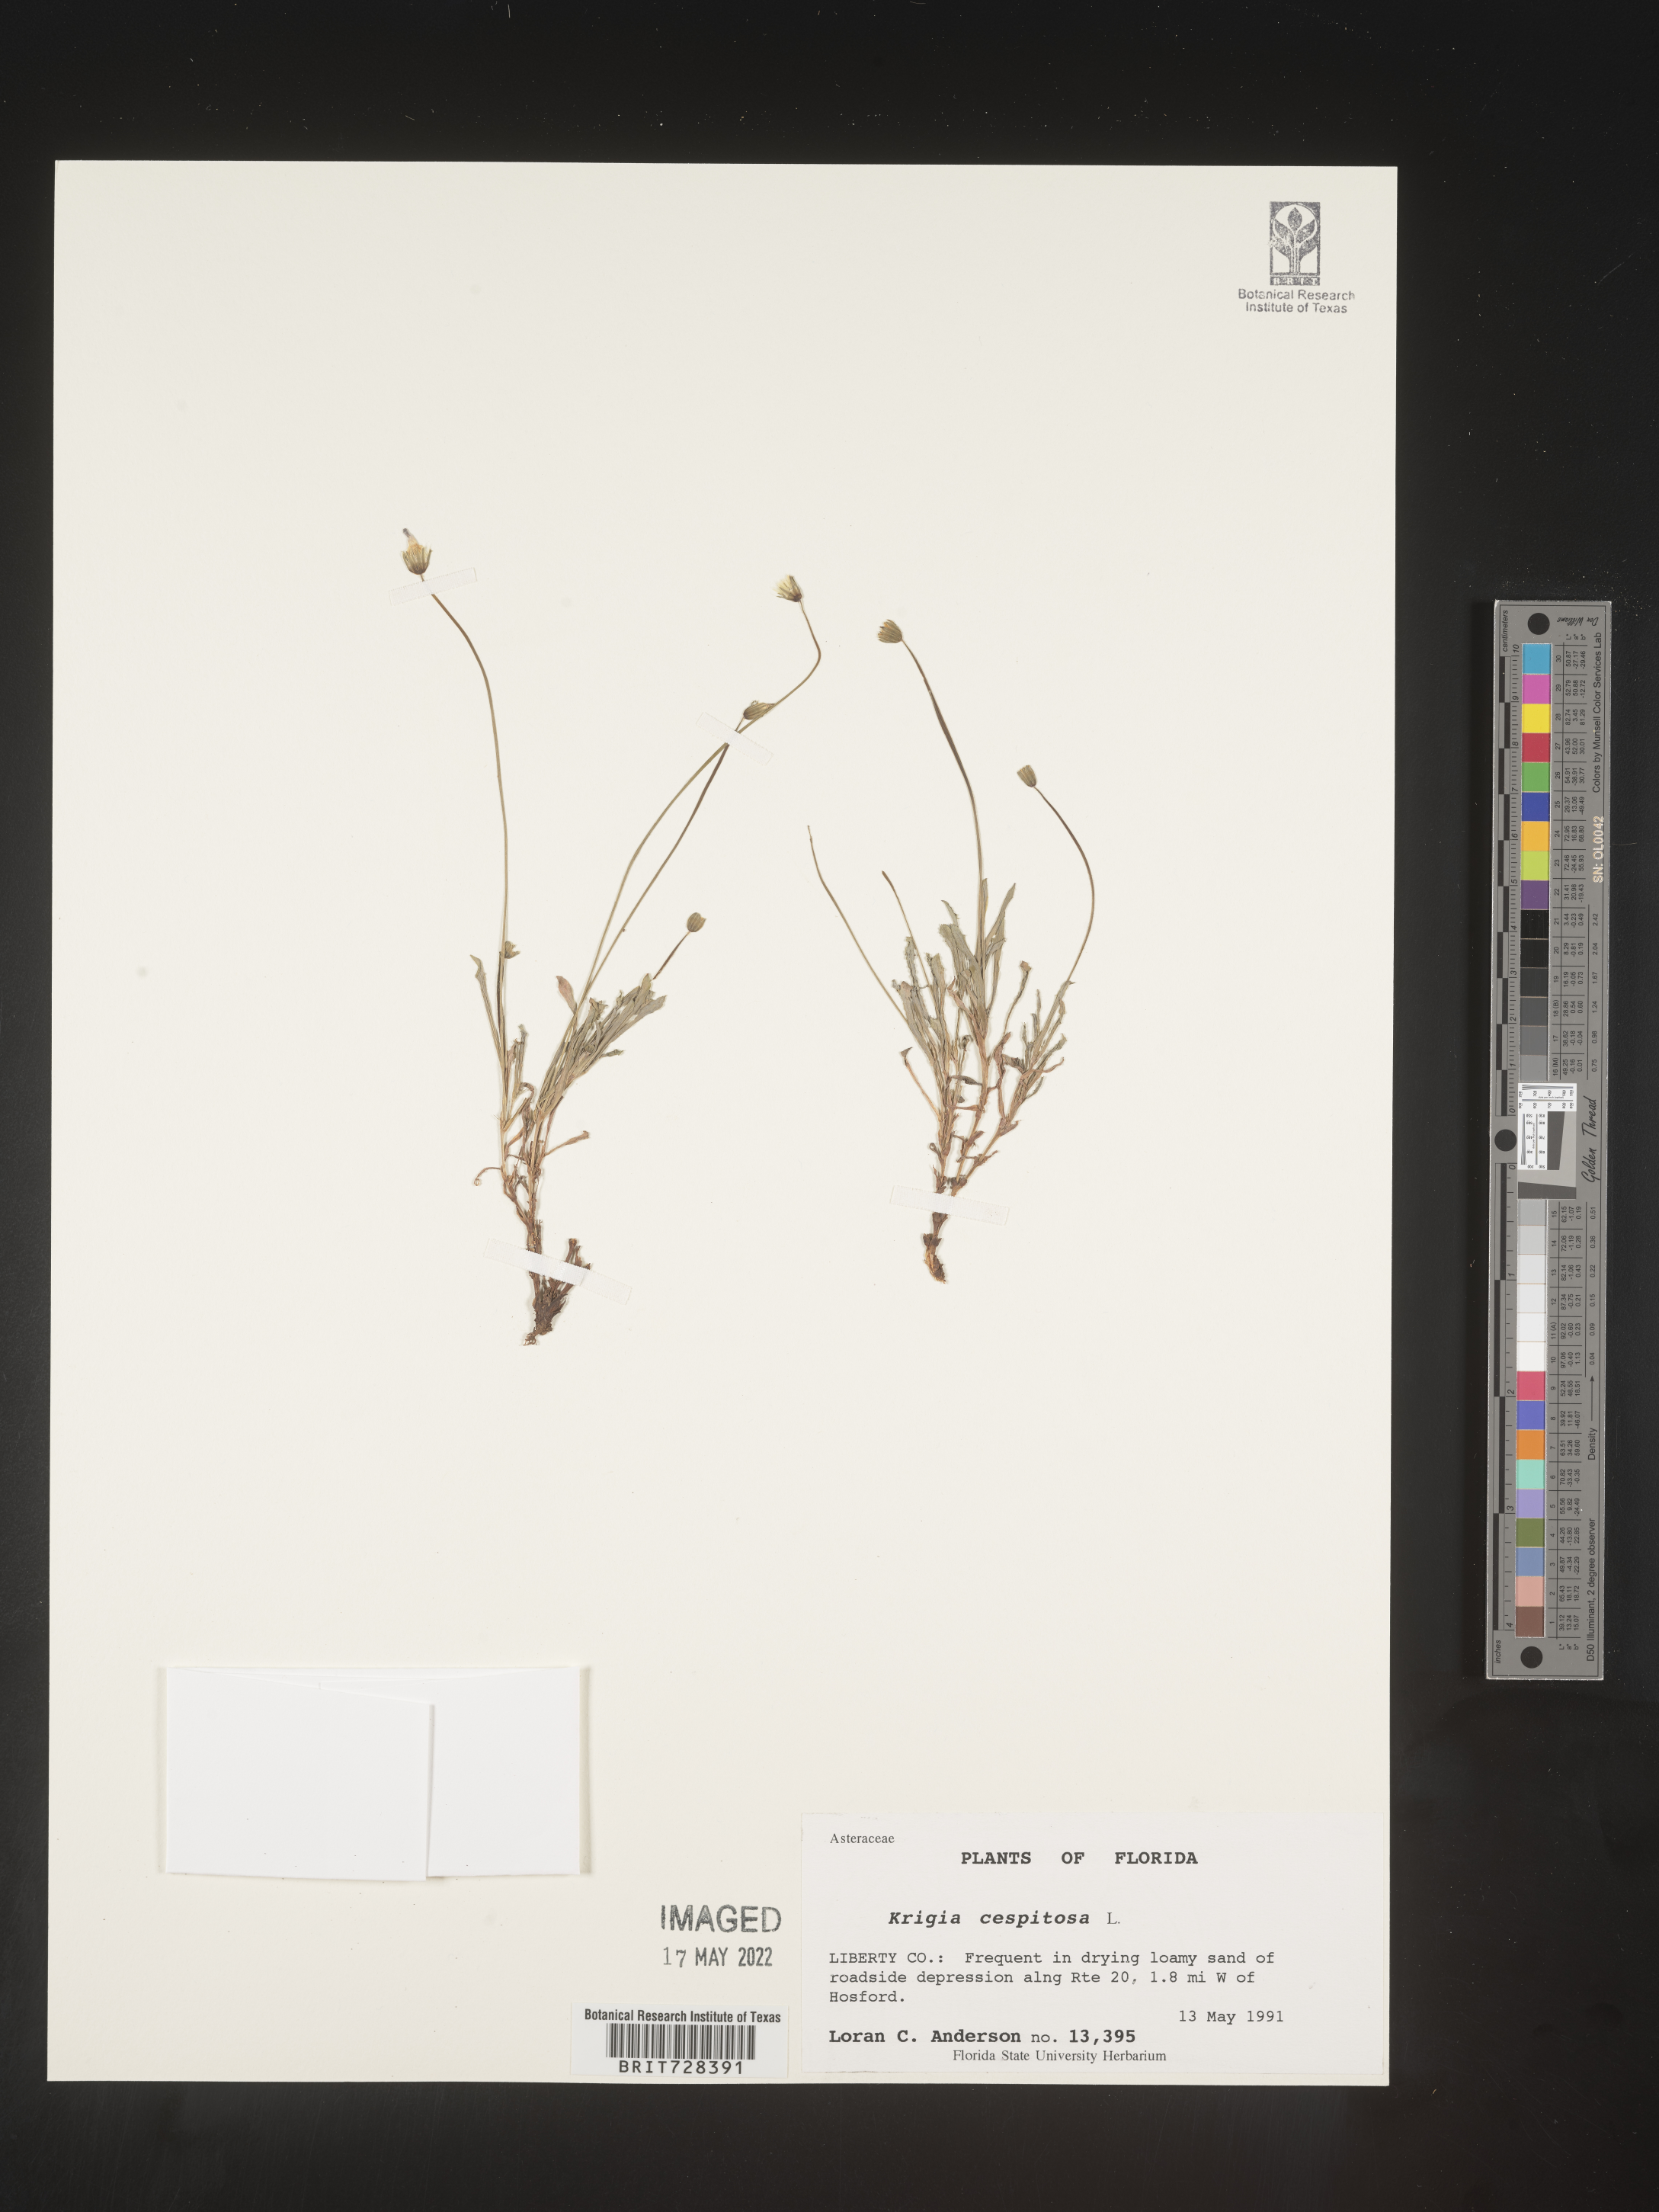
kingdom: Plantae
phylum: Tracheophyta
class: Magnoliopsida
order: Asterales
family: Asteraceae
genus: Krigia
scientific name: Krigia caespitosa
